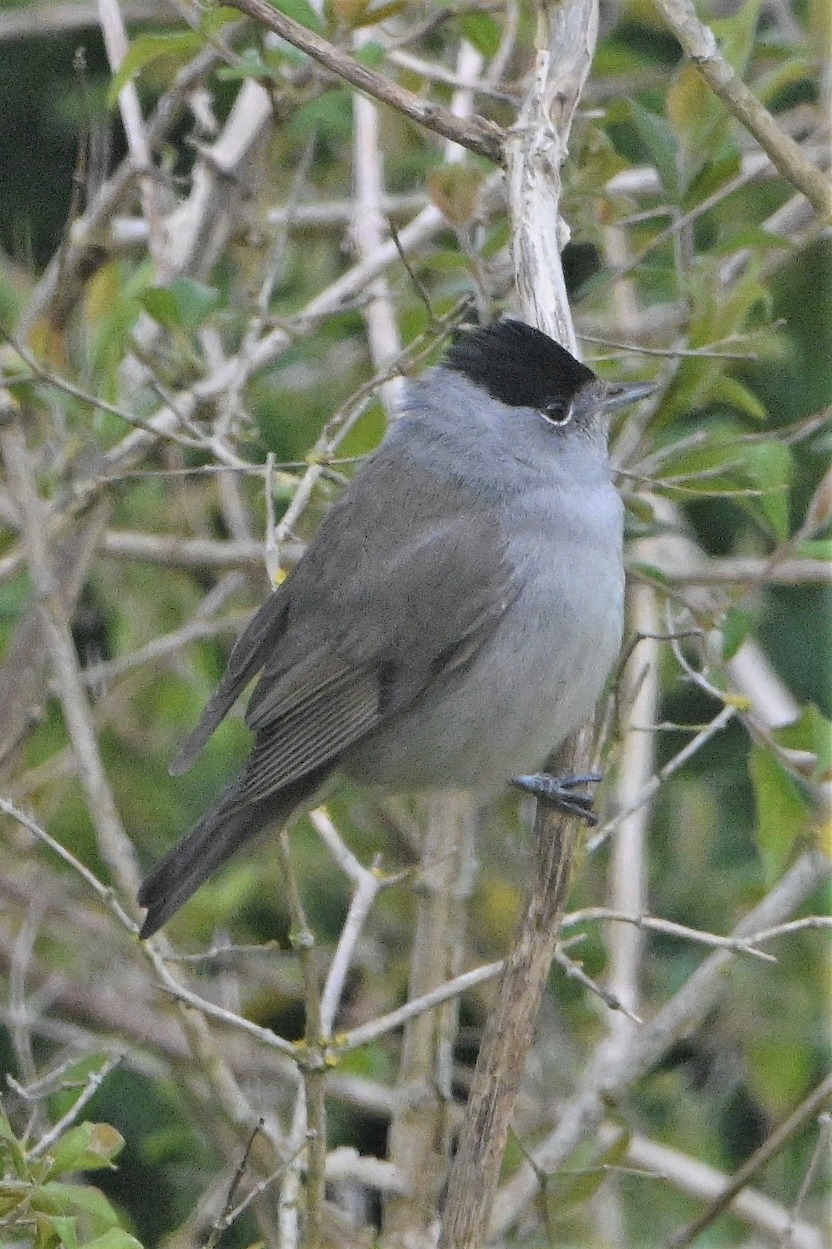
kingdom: Animalia
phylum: Chordata
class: Aves
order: Passeriformes
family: Sylviidae
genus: Sylvia
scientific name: Sylvia atricapilla
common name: Munk
